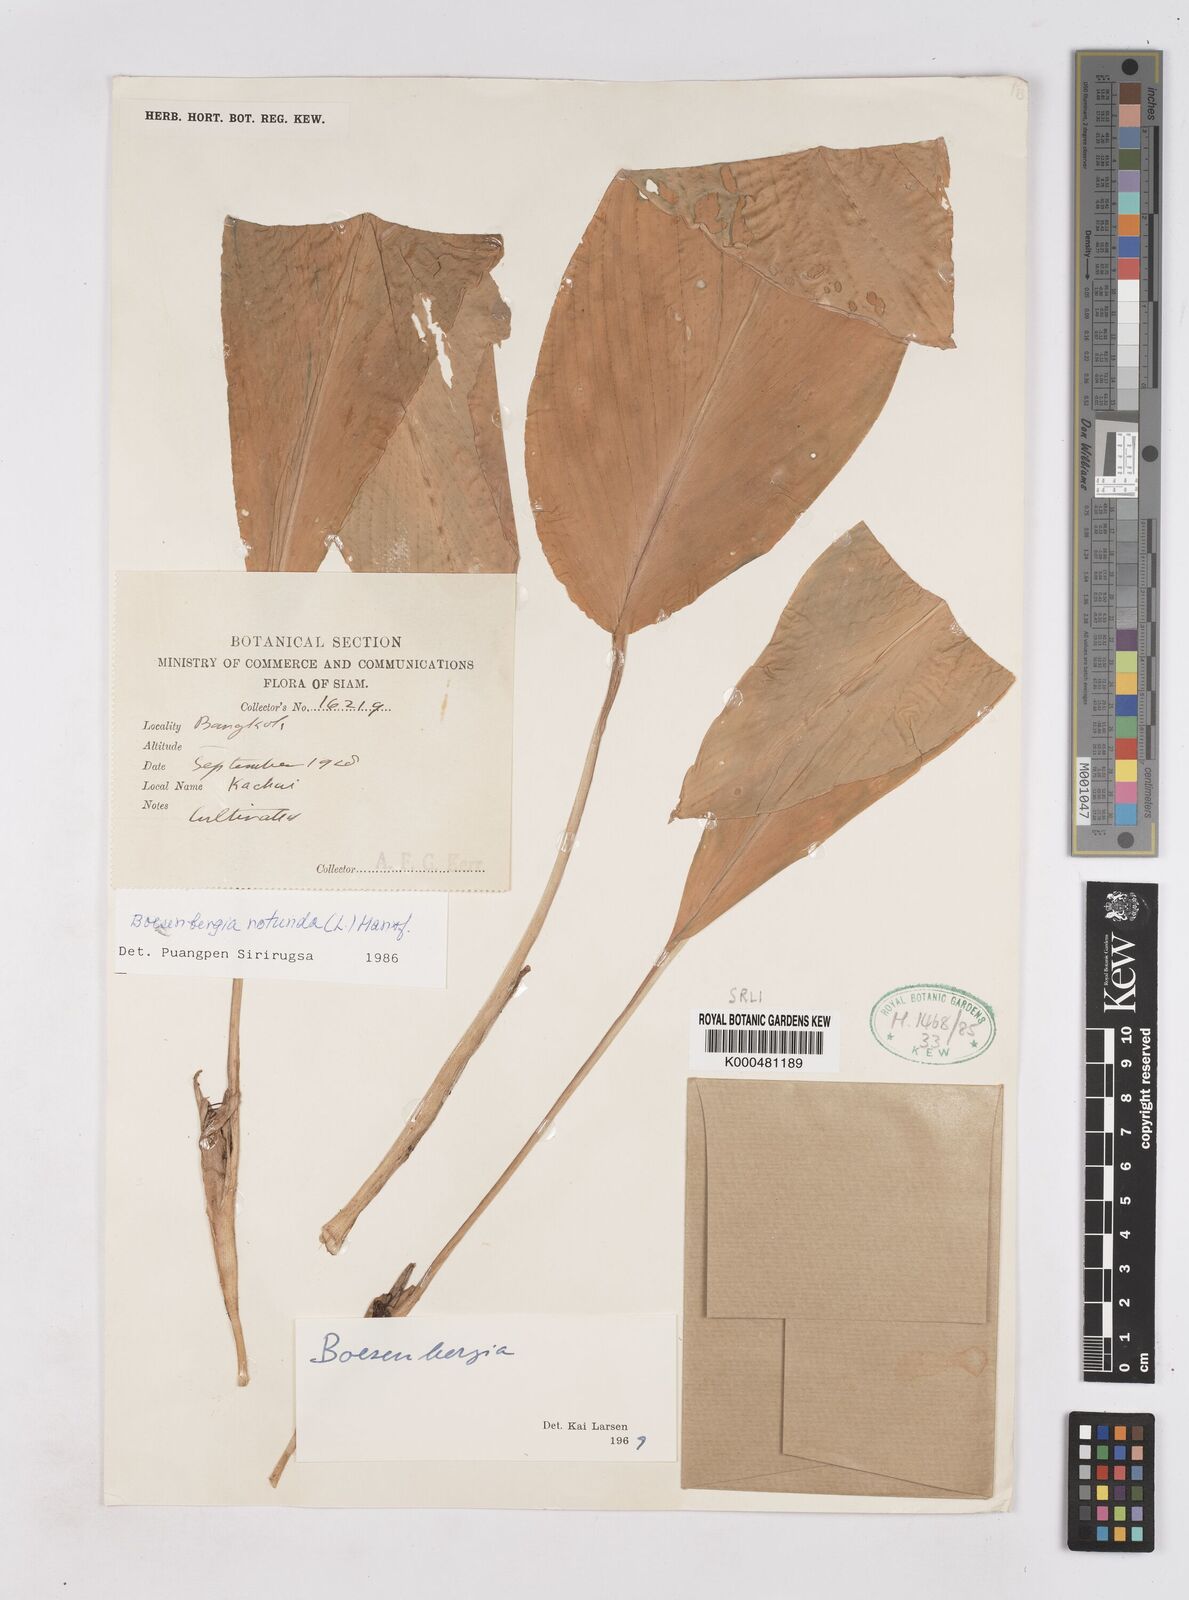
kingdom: Plantae
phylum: Tracheophyta
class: Liliopsida
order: Zingiberales
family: Zingiberaceae
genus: Boesenbergia
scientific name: Boesenbergia rotunda
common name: Chinese ginger
